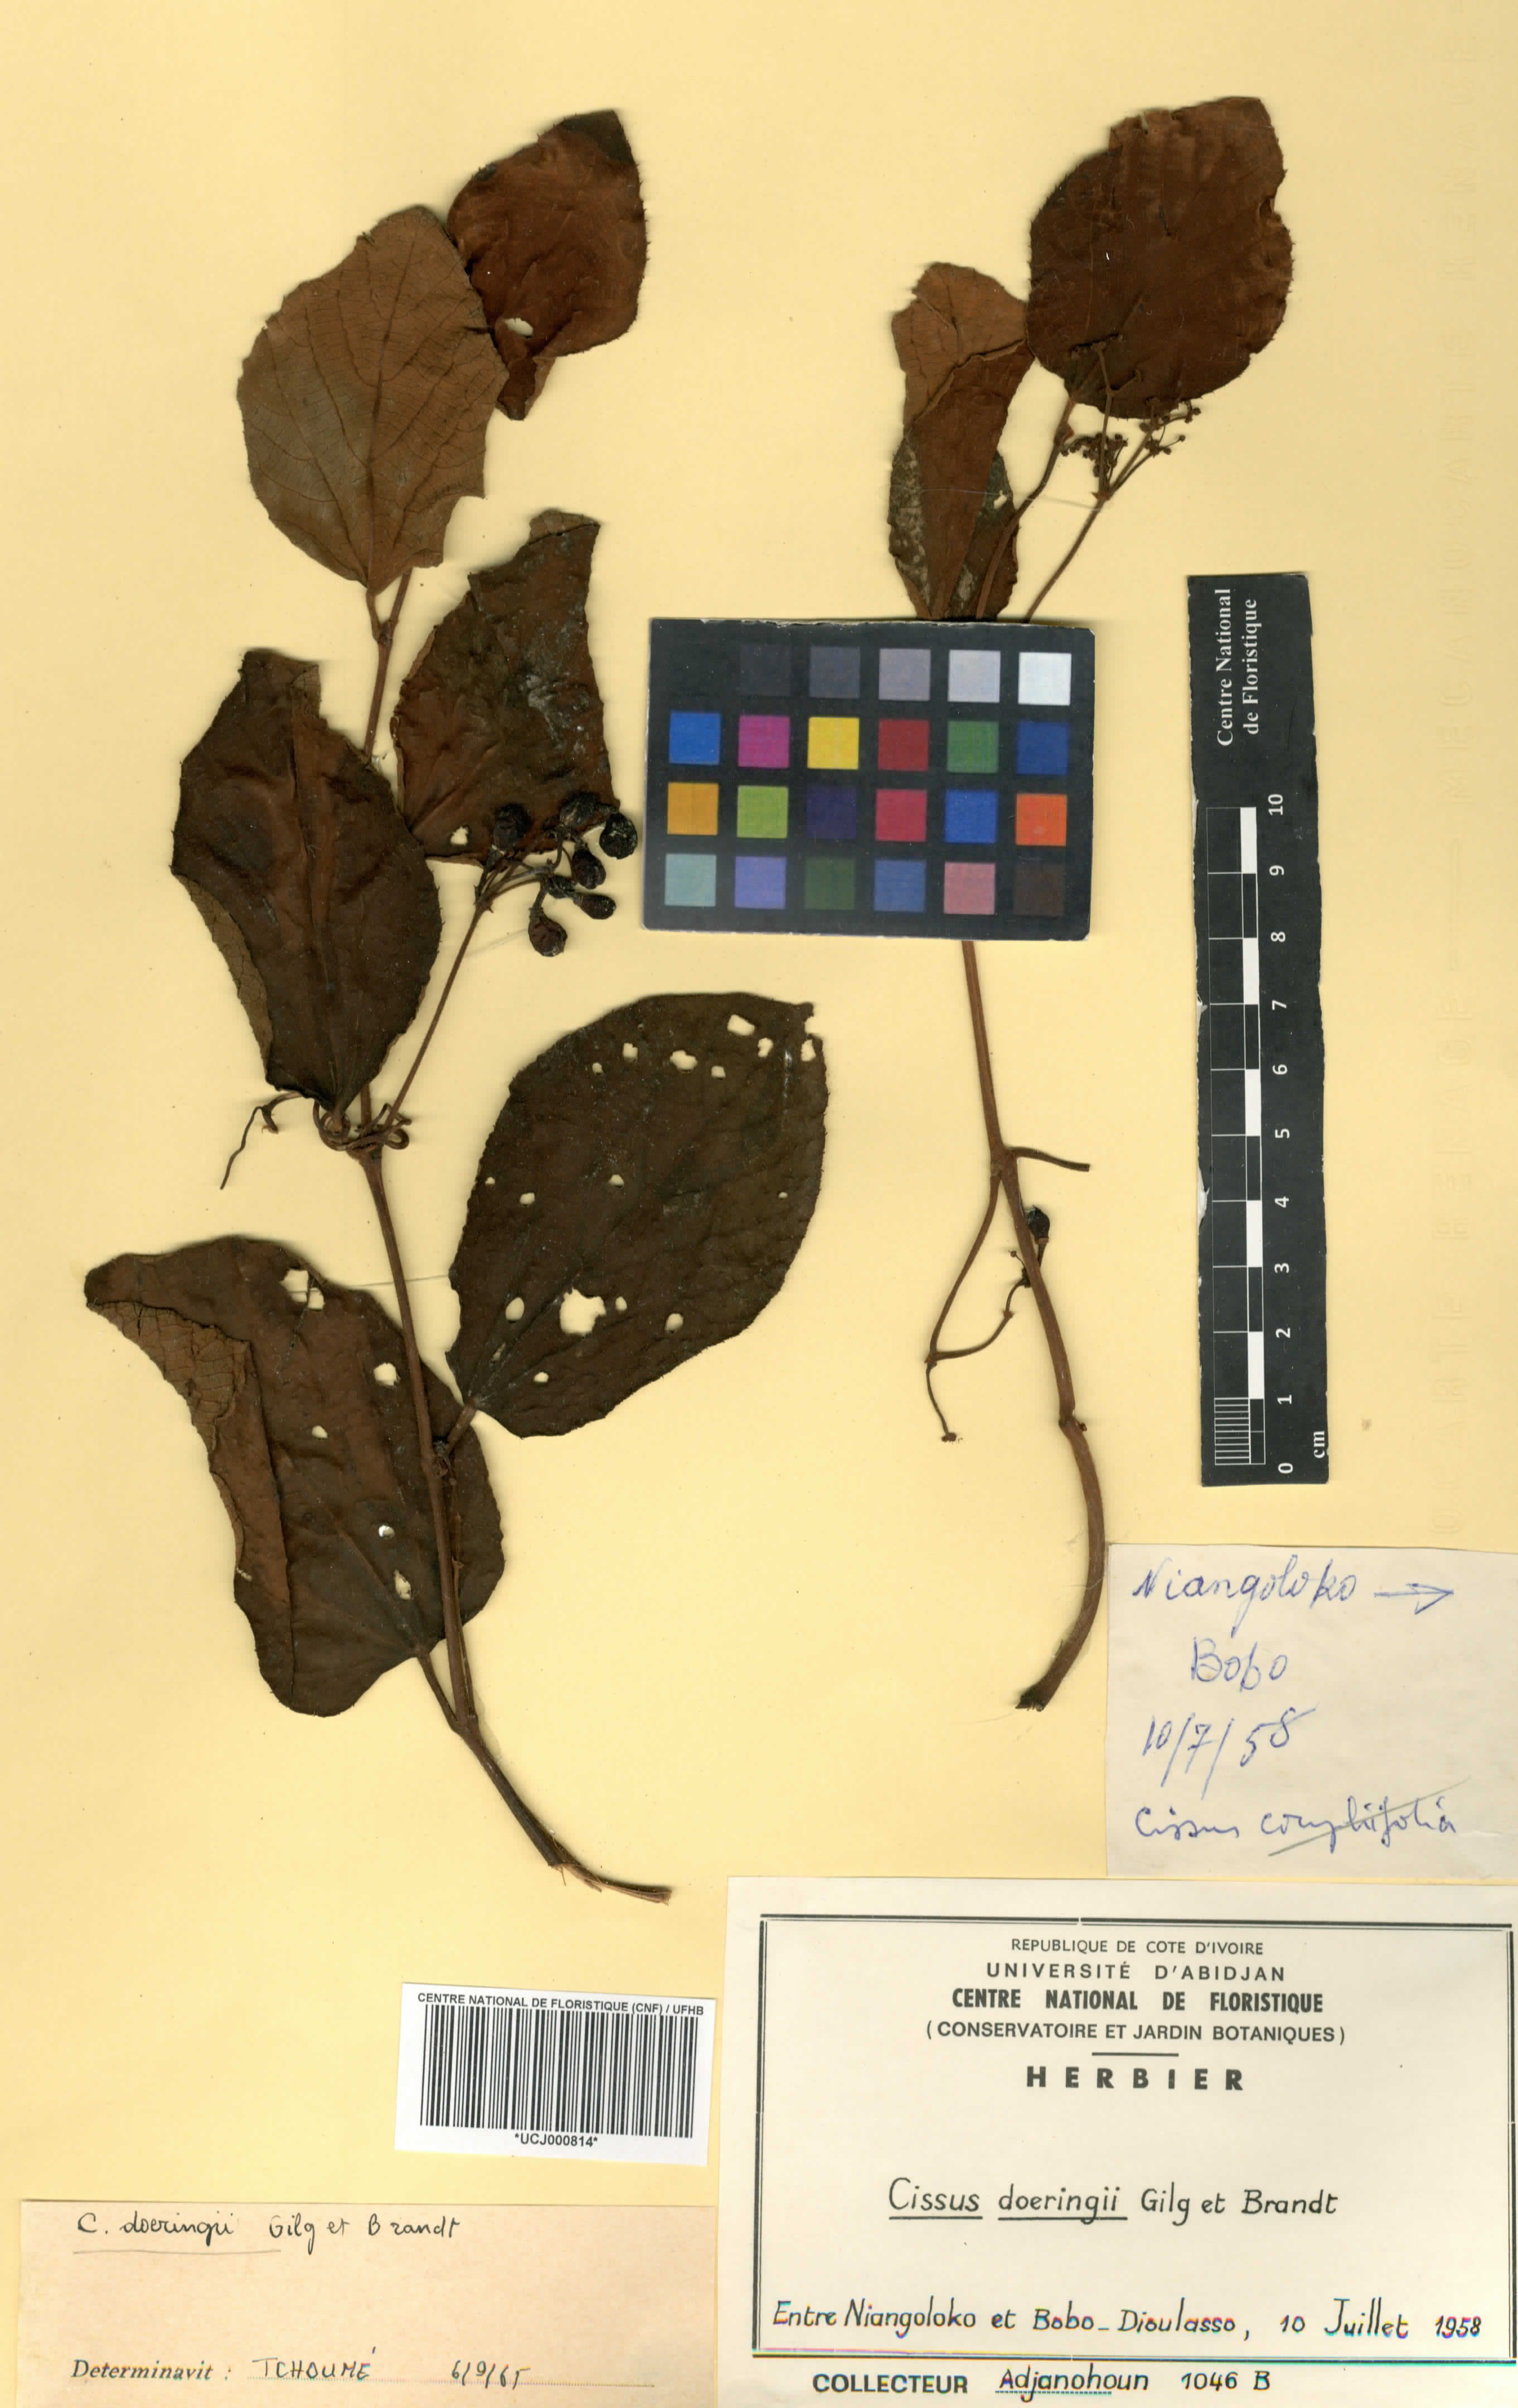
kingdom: Plantae
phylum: Tracheophyta
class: Magnoliopsida
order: Vitales
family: Vitaceae
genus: Cissus
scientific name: Cissus doeringii
